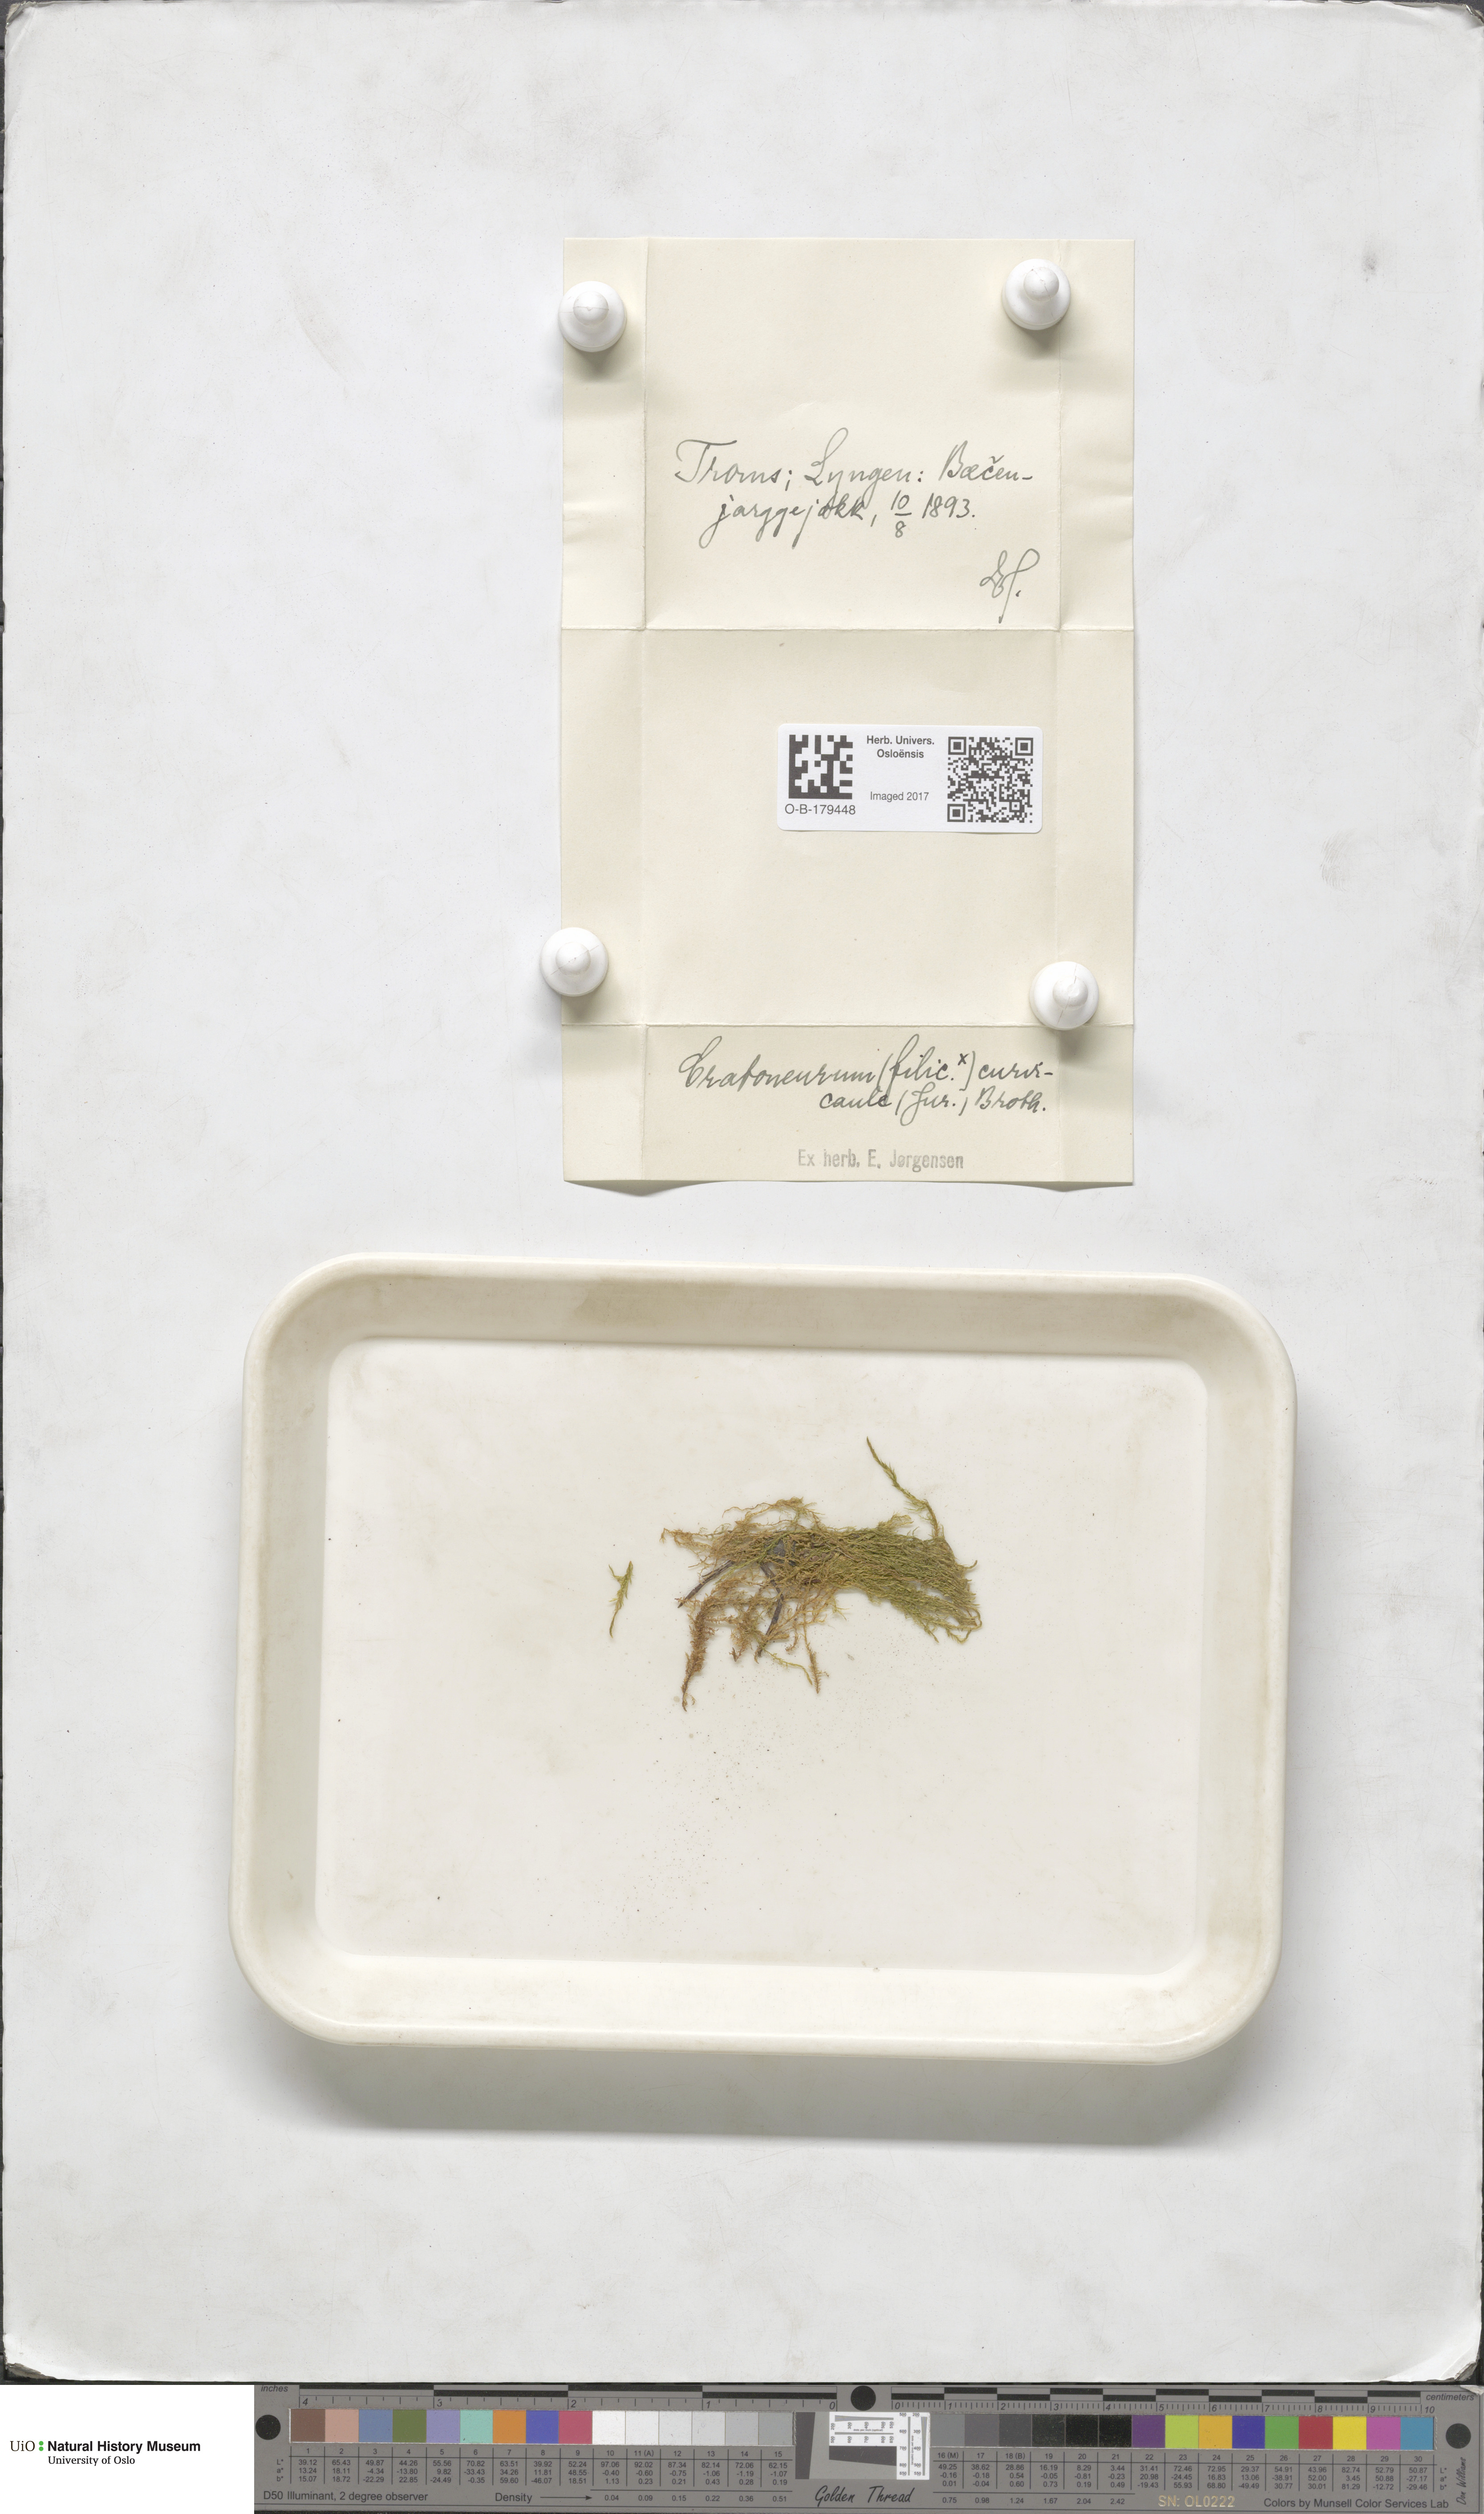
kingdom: Plantae
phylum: Bryophyta
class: Bryopsida
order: Hypnales
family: Amblystegiaceae
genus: Cratoneuron
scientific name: Cratoneuron filicinum
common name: Fern-leaved hook moss
